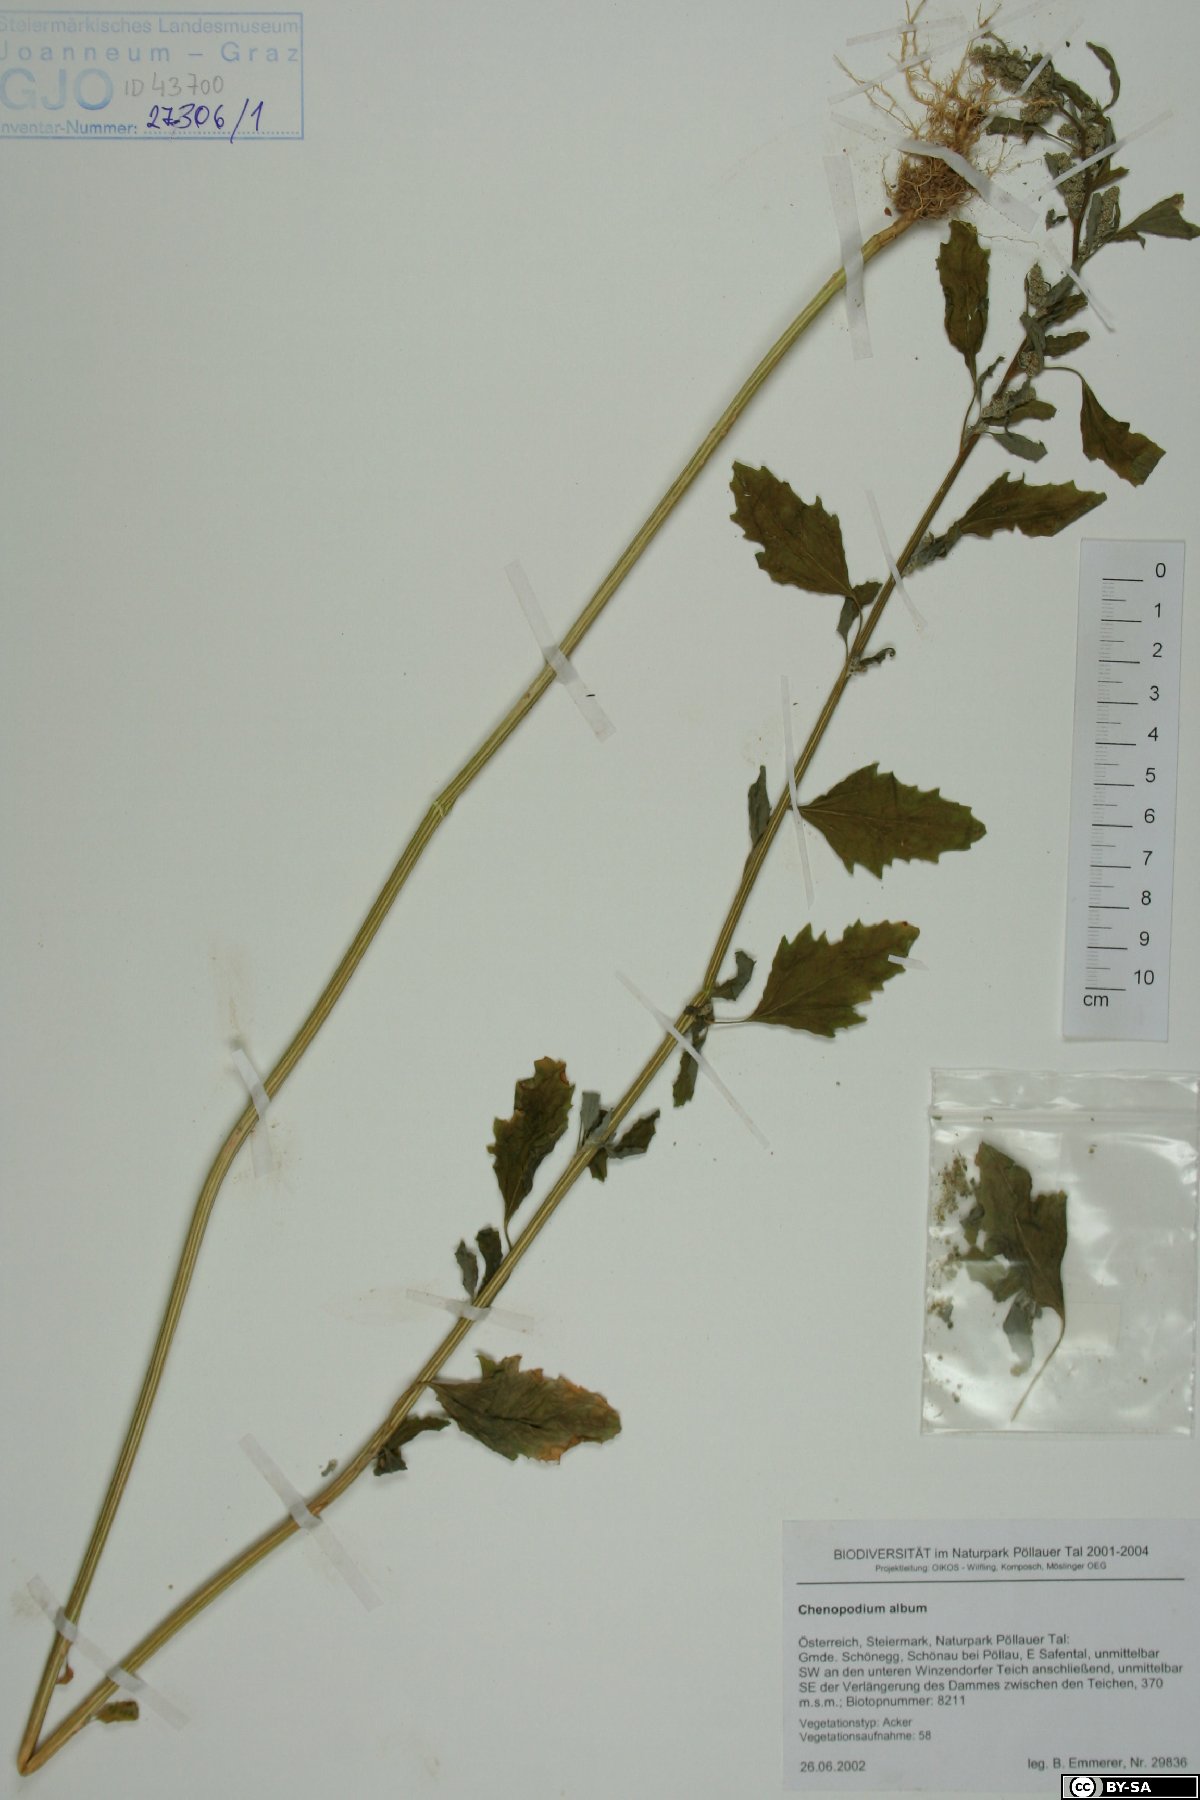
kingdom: Plantae
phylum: Tracheophyta
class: Magnoliopsida
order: Caryophyllales
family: Amaranthaceae
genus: Chenopodium
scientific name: Chenopodium album
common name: Fat-hen
